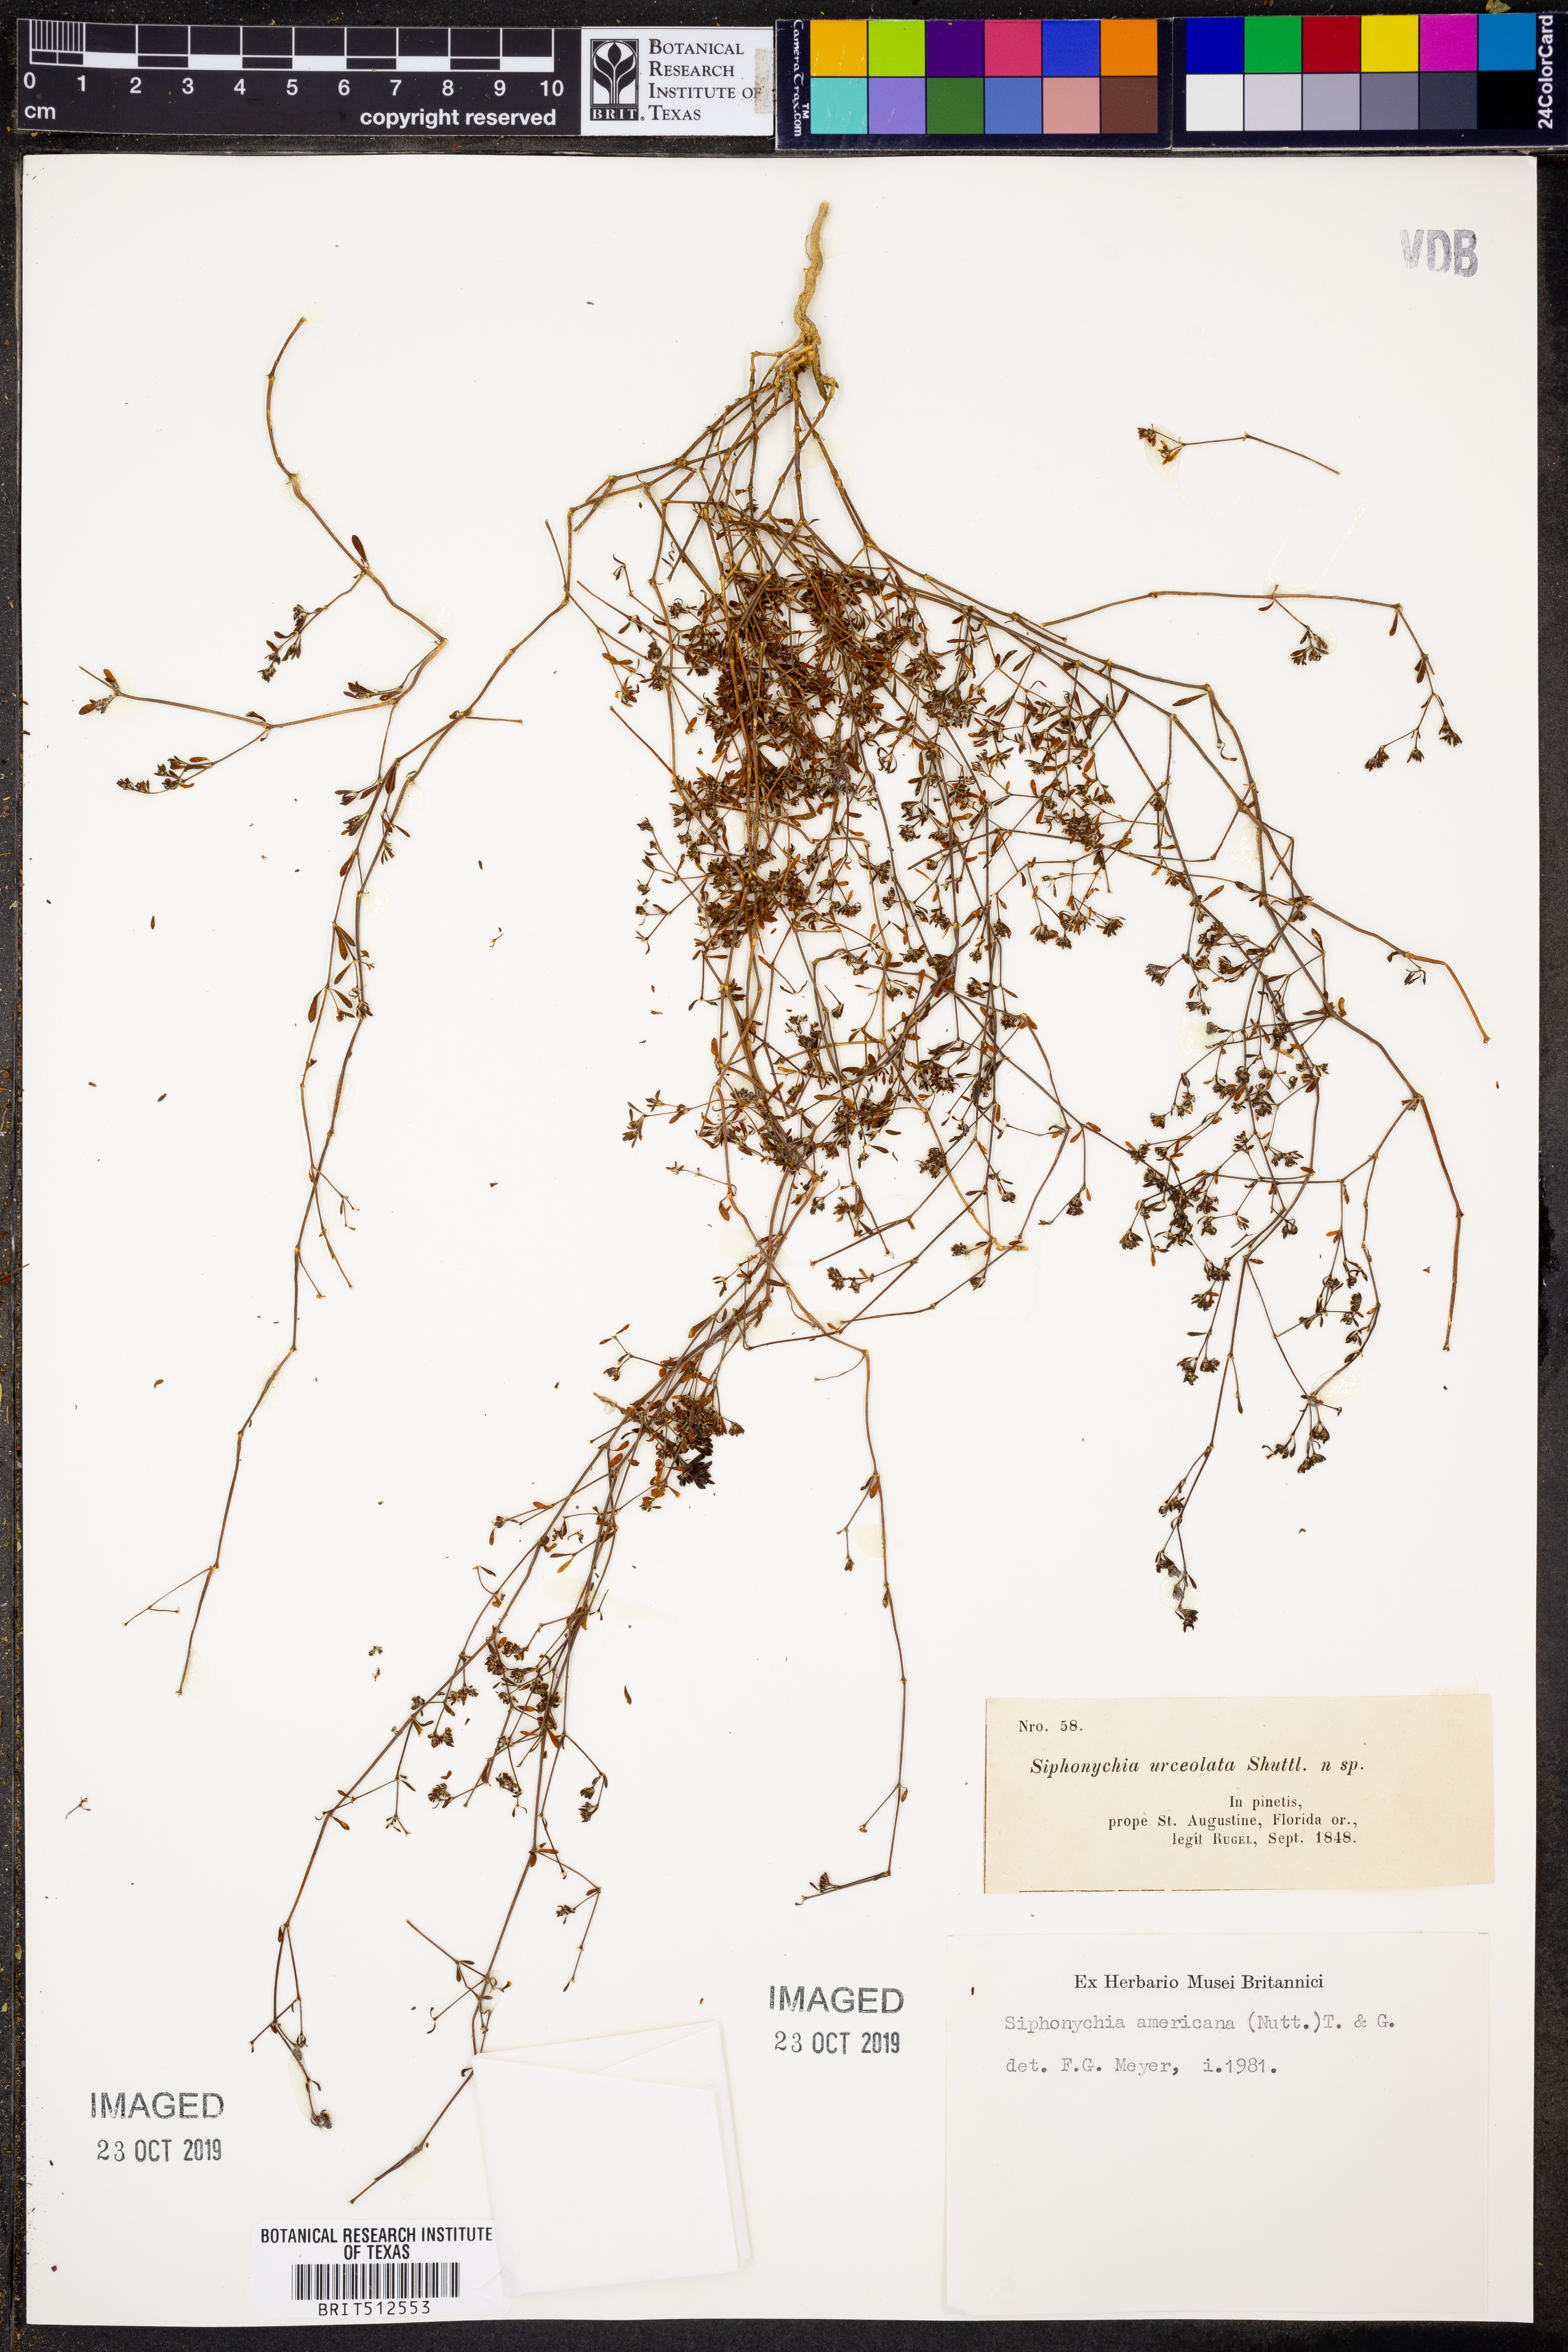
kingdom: Plantae
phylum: Tracheophyta
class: Magnoliopsida
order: Caryophyllales
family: Caryophyllaceae
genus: Paronychia
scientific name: Paronychia americana
